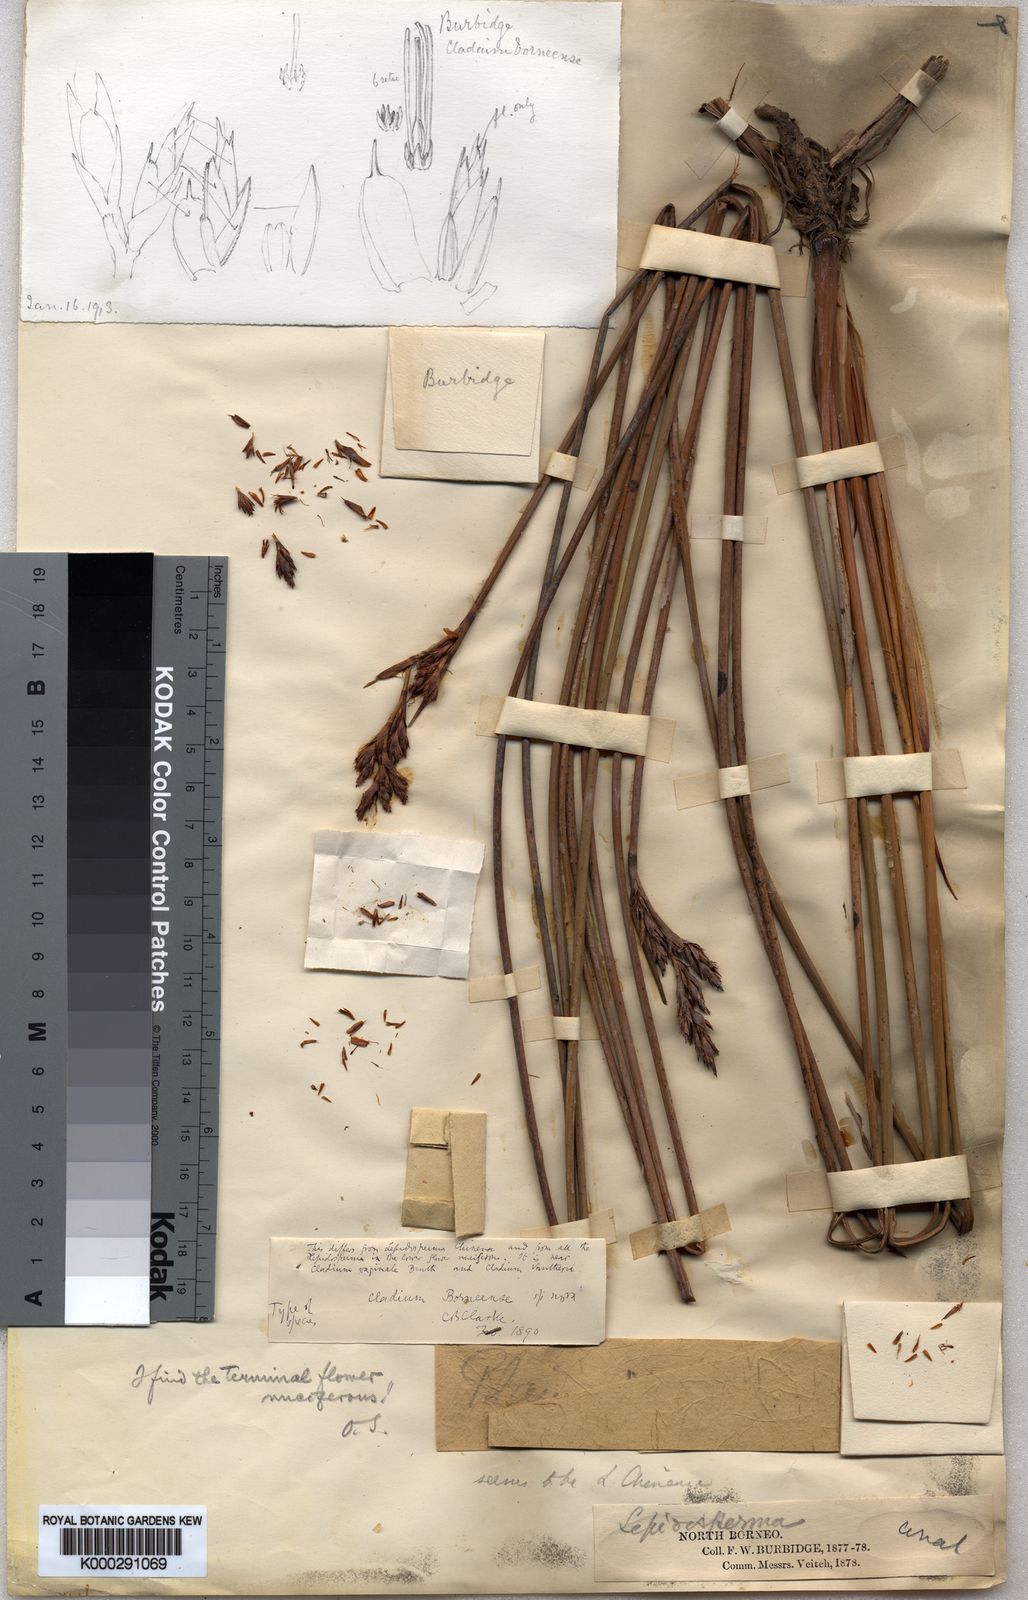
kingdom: Plantae
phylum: Tracheophyta
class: Liliopsida
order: Poales
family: Cyperaceae
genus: Lepidosperma
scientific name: Lepidosperma
